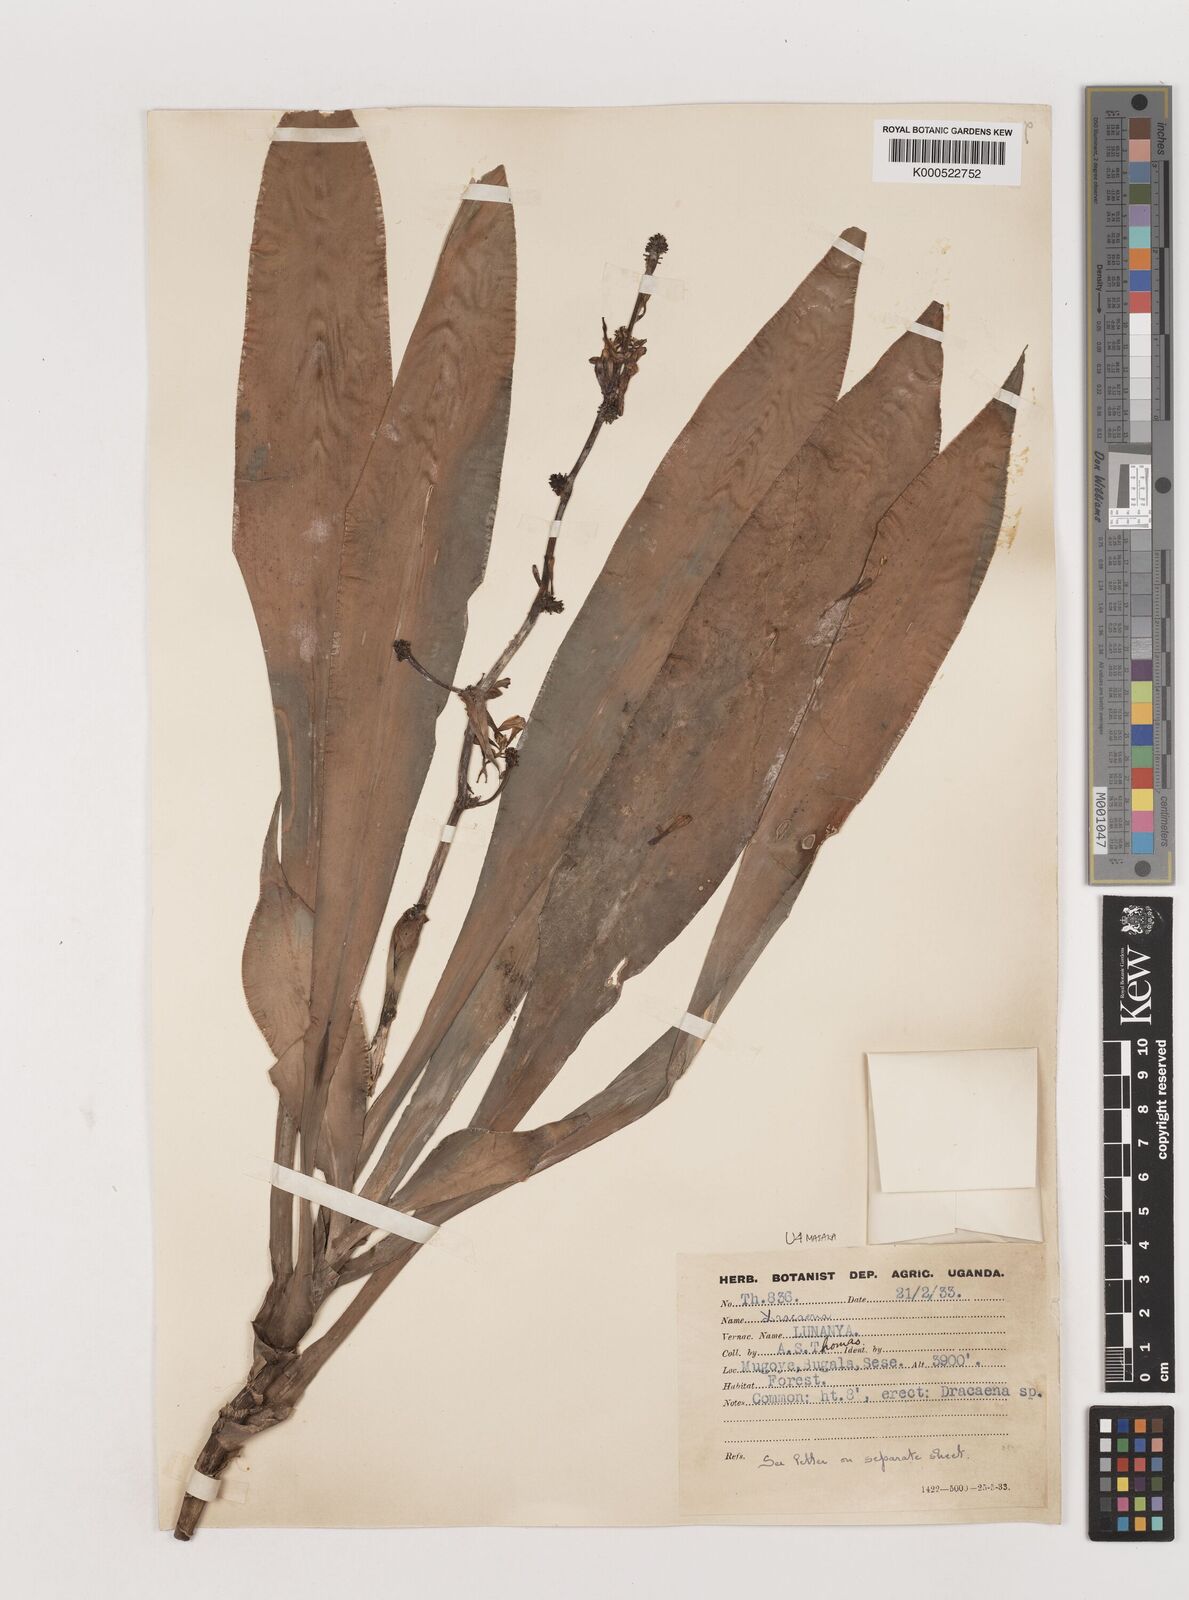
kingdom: Plantae
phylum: Tracheophyta
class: Liliopsida
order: Asparagales
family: Asparagaceae
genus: Dracaena
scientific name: Dracaena fragrans
